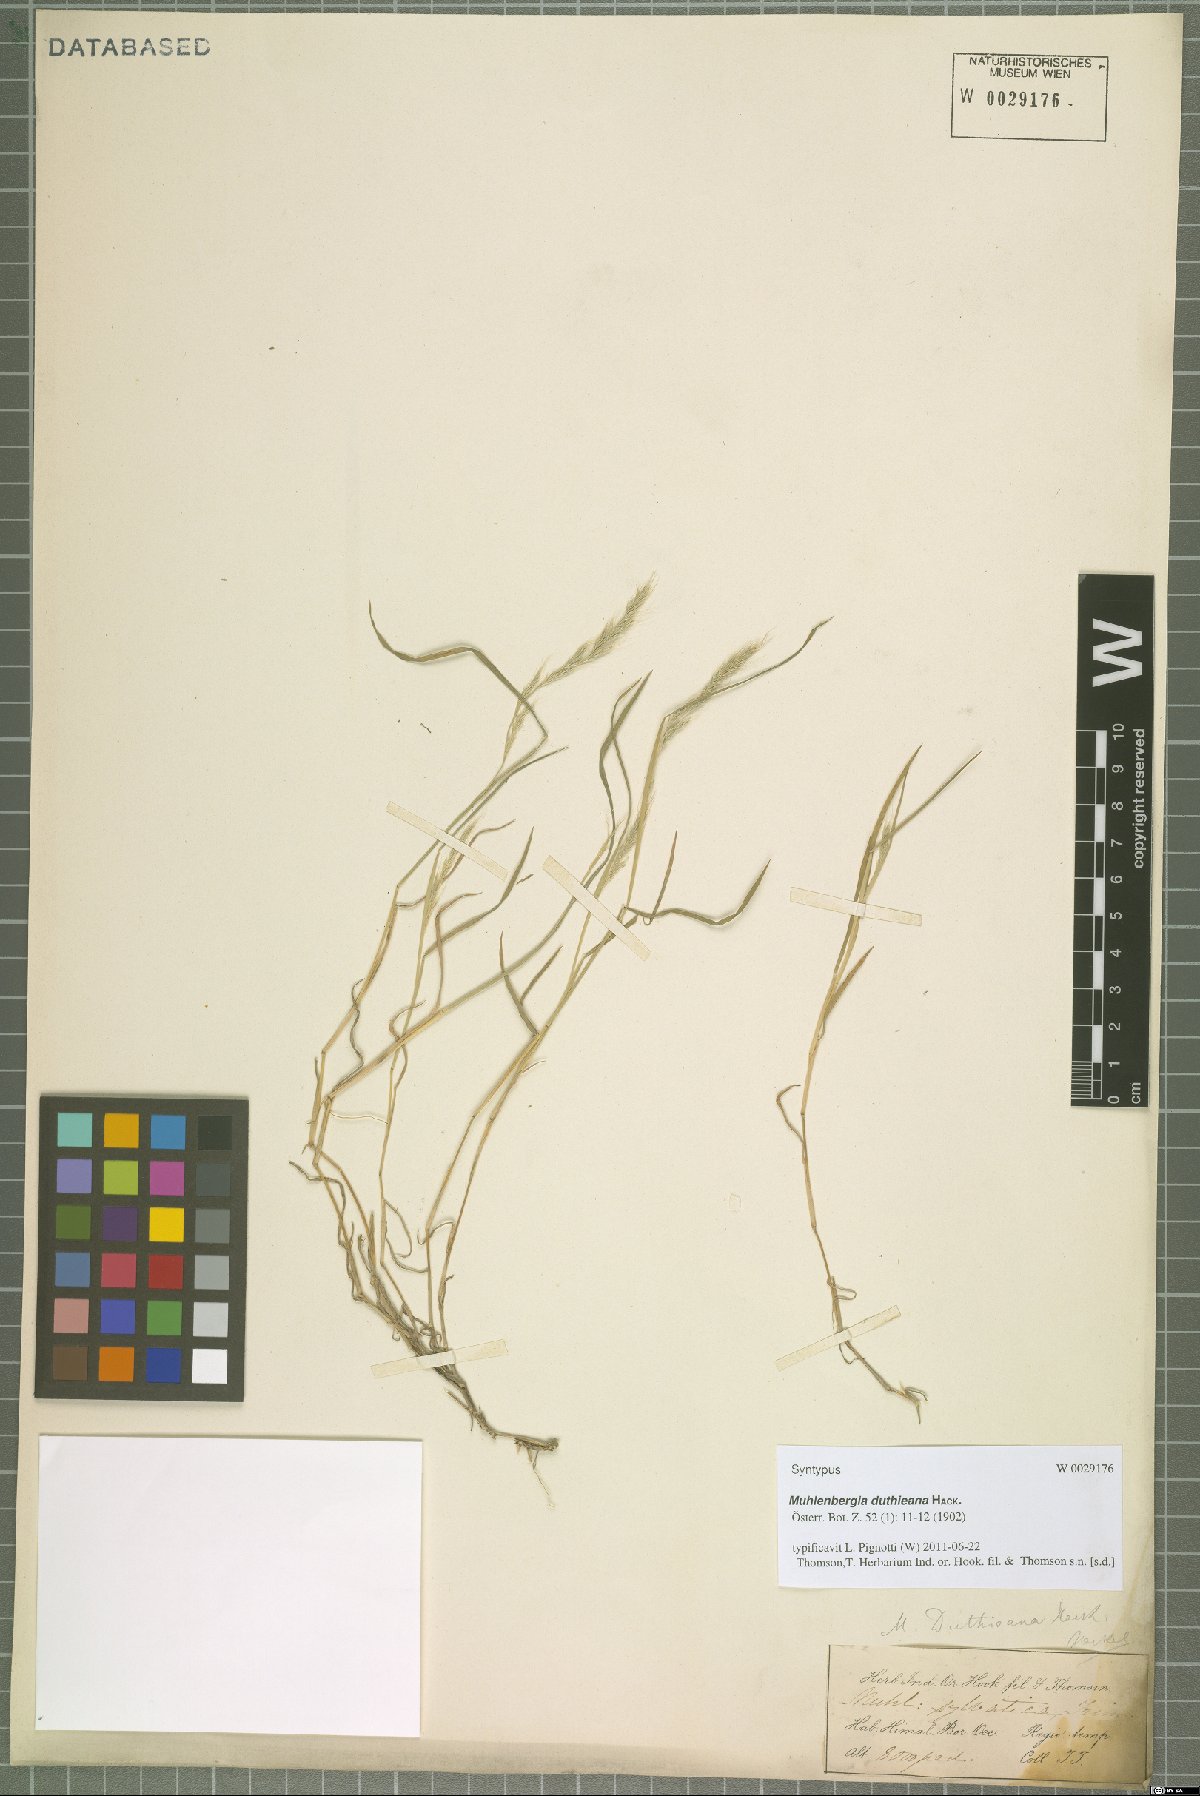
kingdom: Plantae
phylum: Tracheophyta
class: Liliopsida
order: Poales
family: Poaceae
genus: Muhlenbergia
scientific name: Muhlenbergia duthieana
